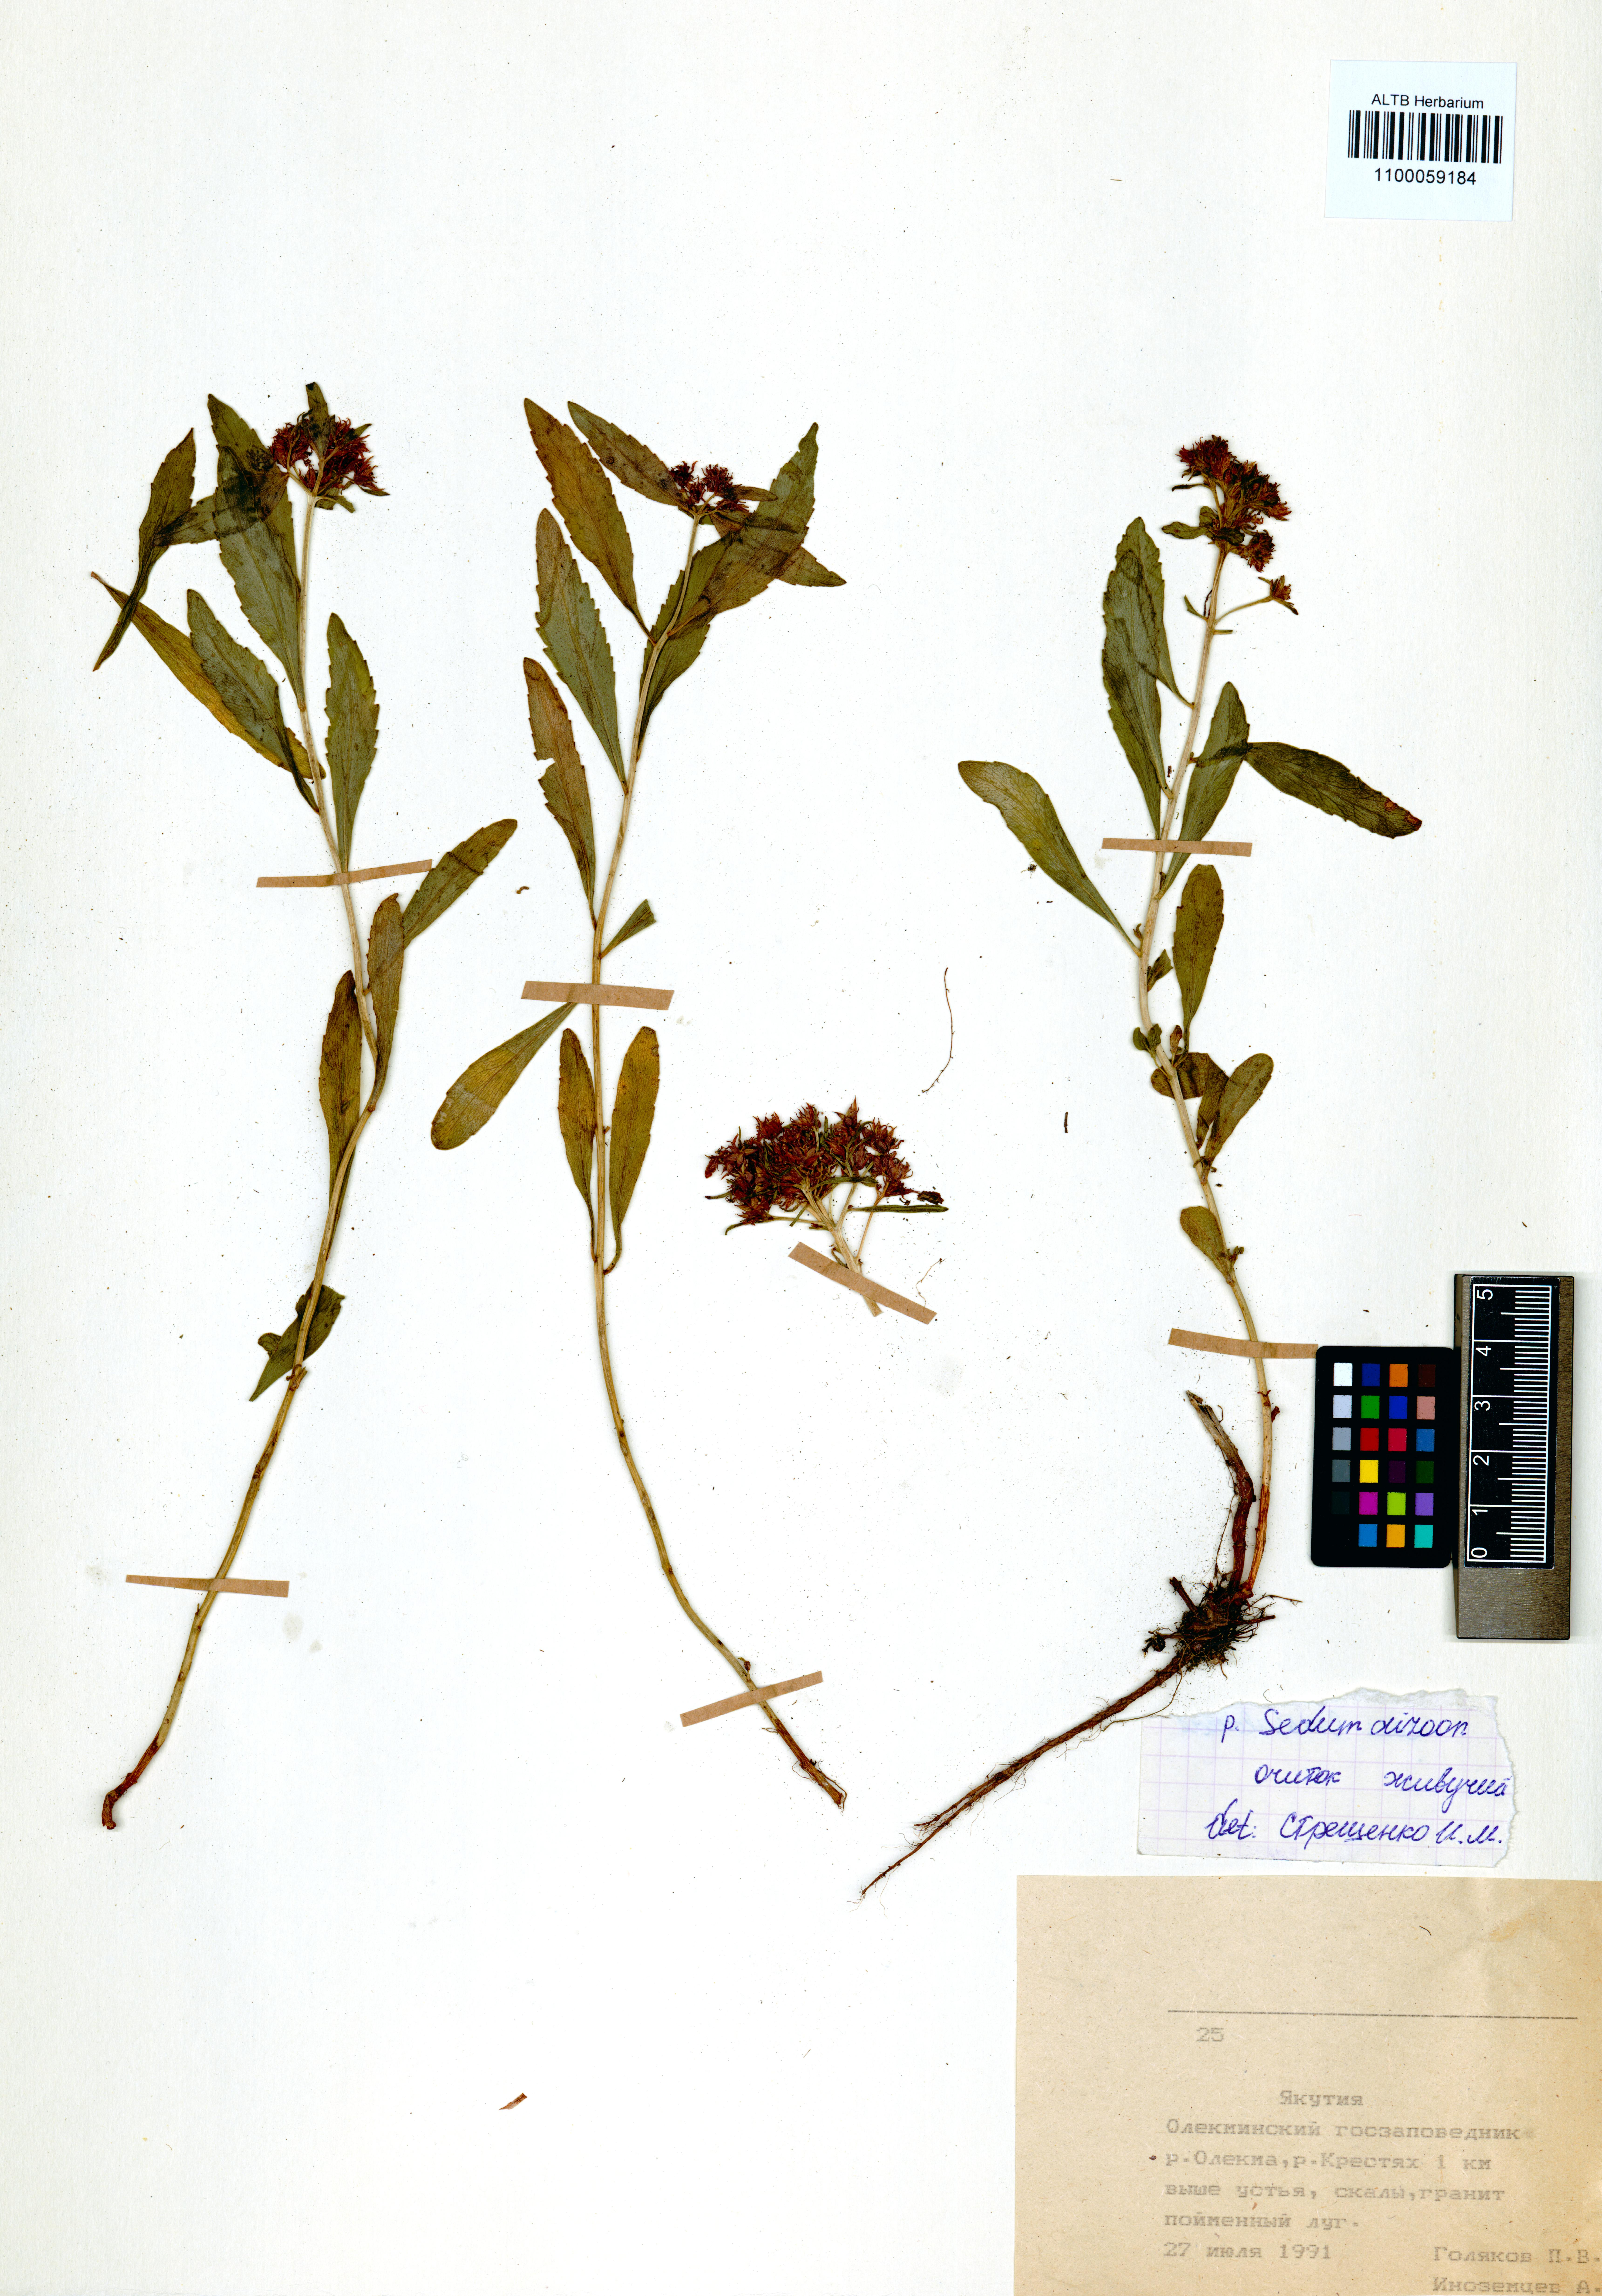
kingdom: Plantae
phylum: Tracheophyta
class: Magnoliopsida
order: Saxifragales
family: Crassulaceae
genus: Phedimus
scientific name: Phedimus aizoon
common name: Orpin aizoon
